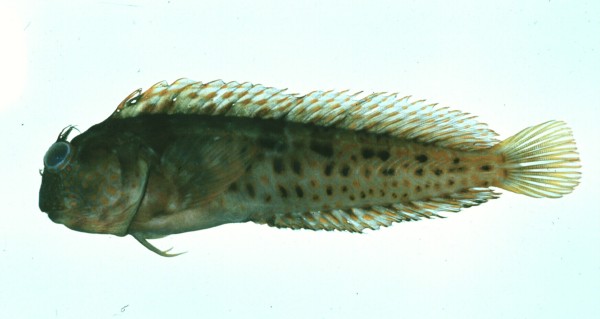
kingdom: Animalia
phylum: Chordata
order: Perciformes
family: Blenniidae
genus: Parablennius
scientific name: Parablennius pilicornis
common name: Ringneck blenny
